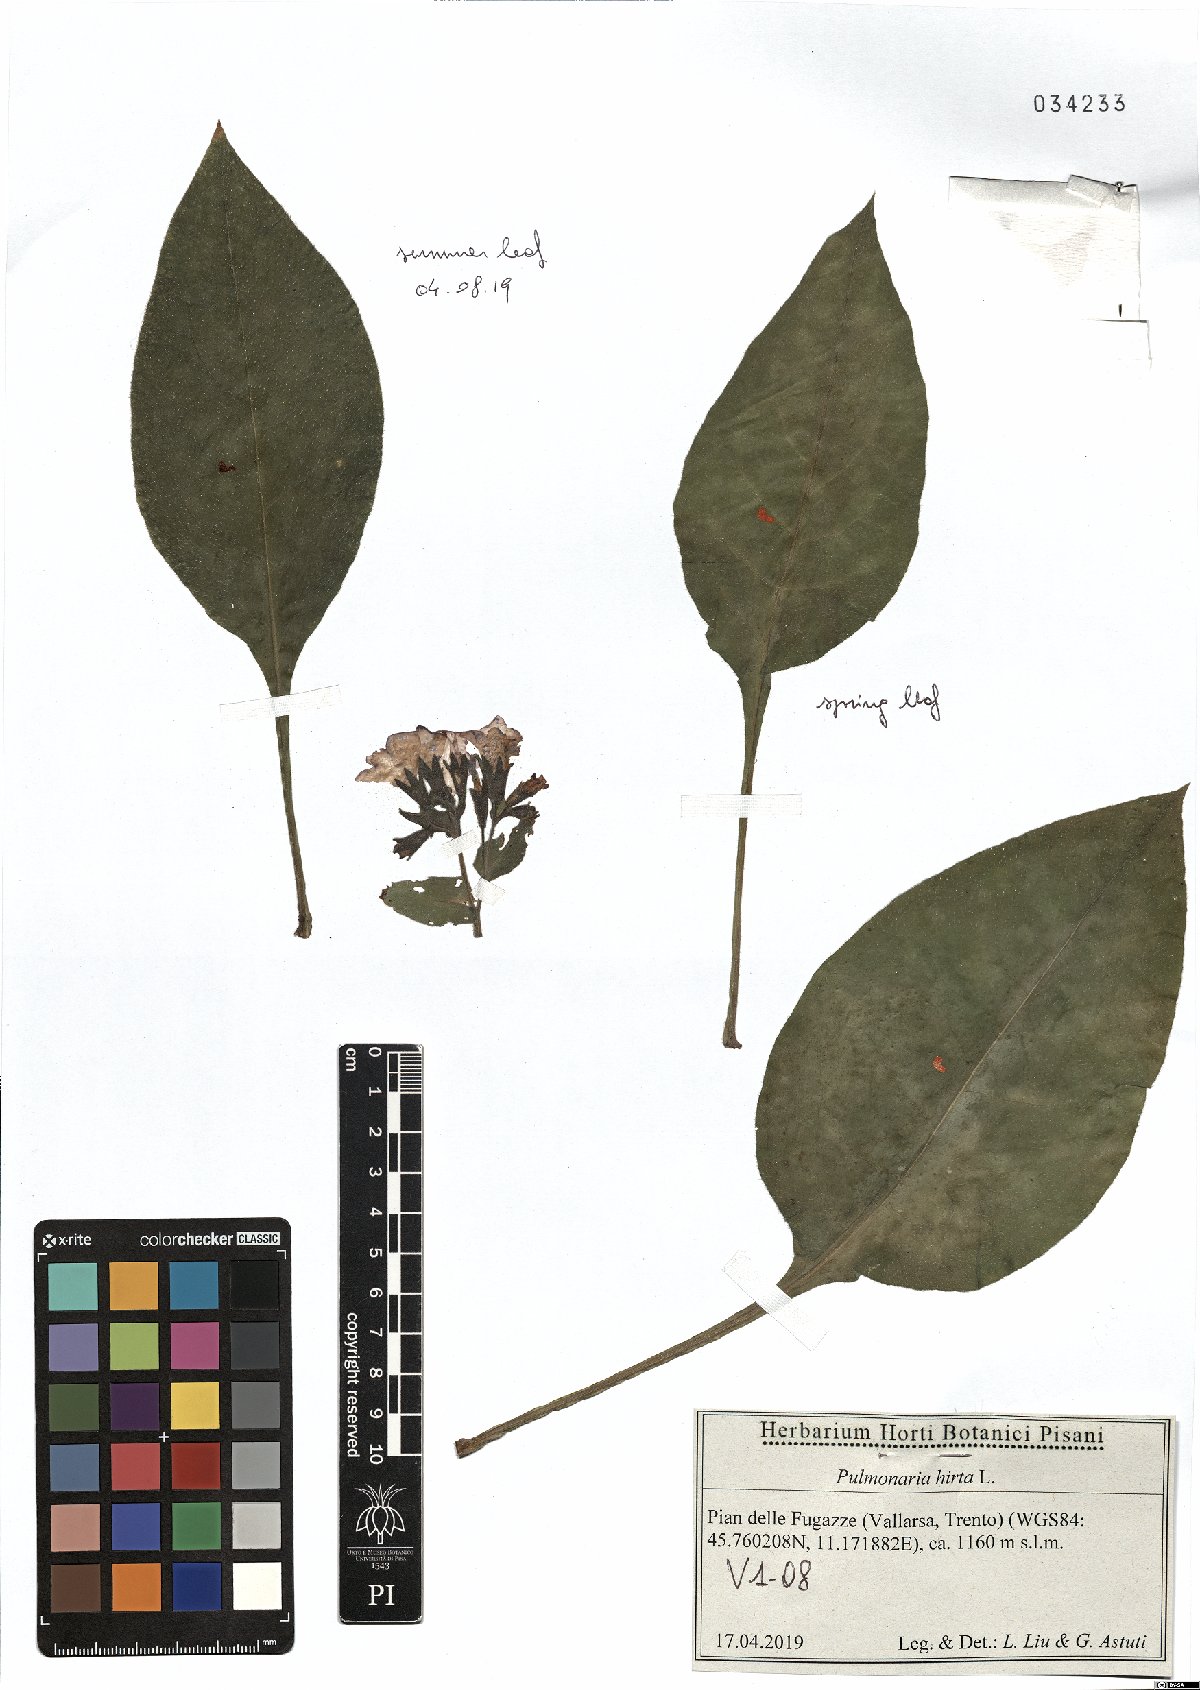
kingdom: Plantae
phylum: Tracheophyta
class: Magnoliopsida
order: Boraginales
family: Boraginaceae
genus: Pulmonaria
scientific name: Pulmonaria hirta
